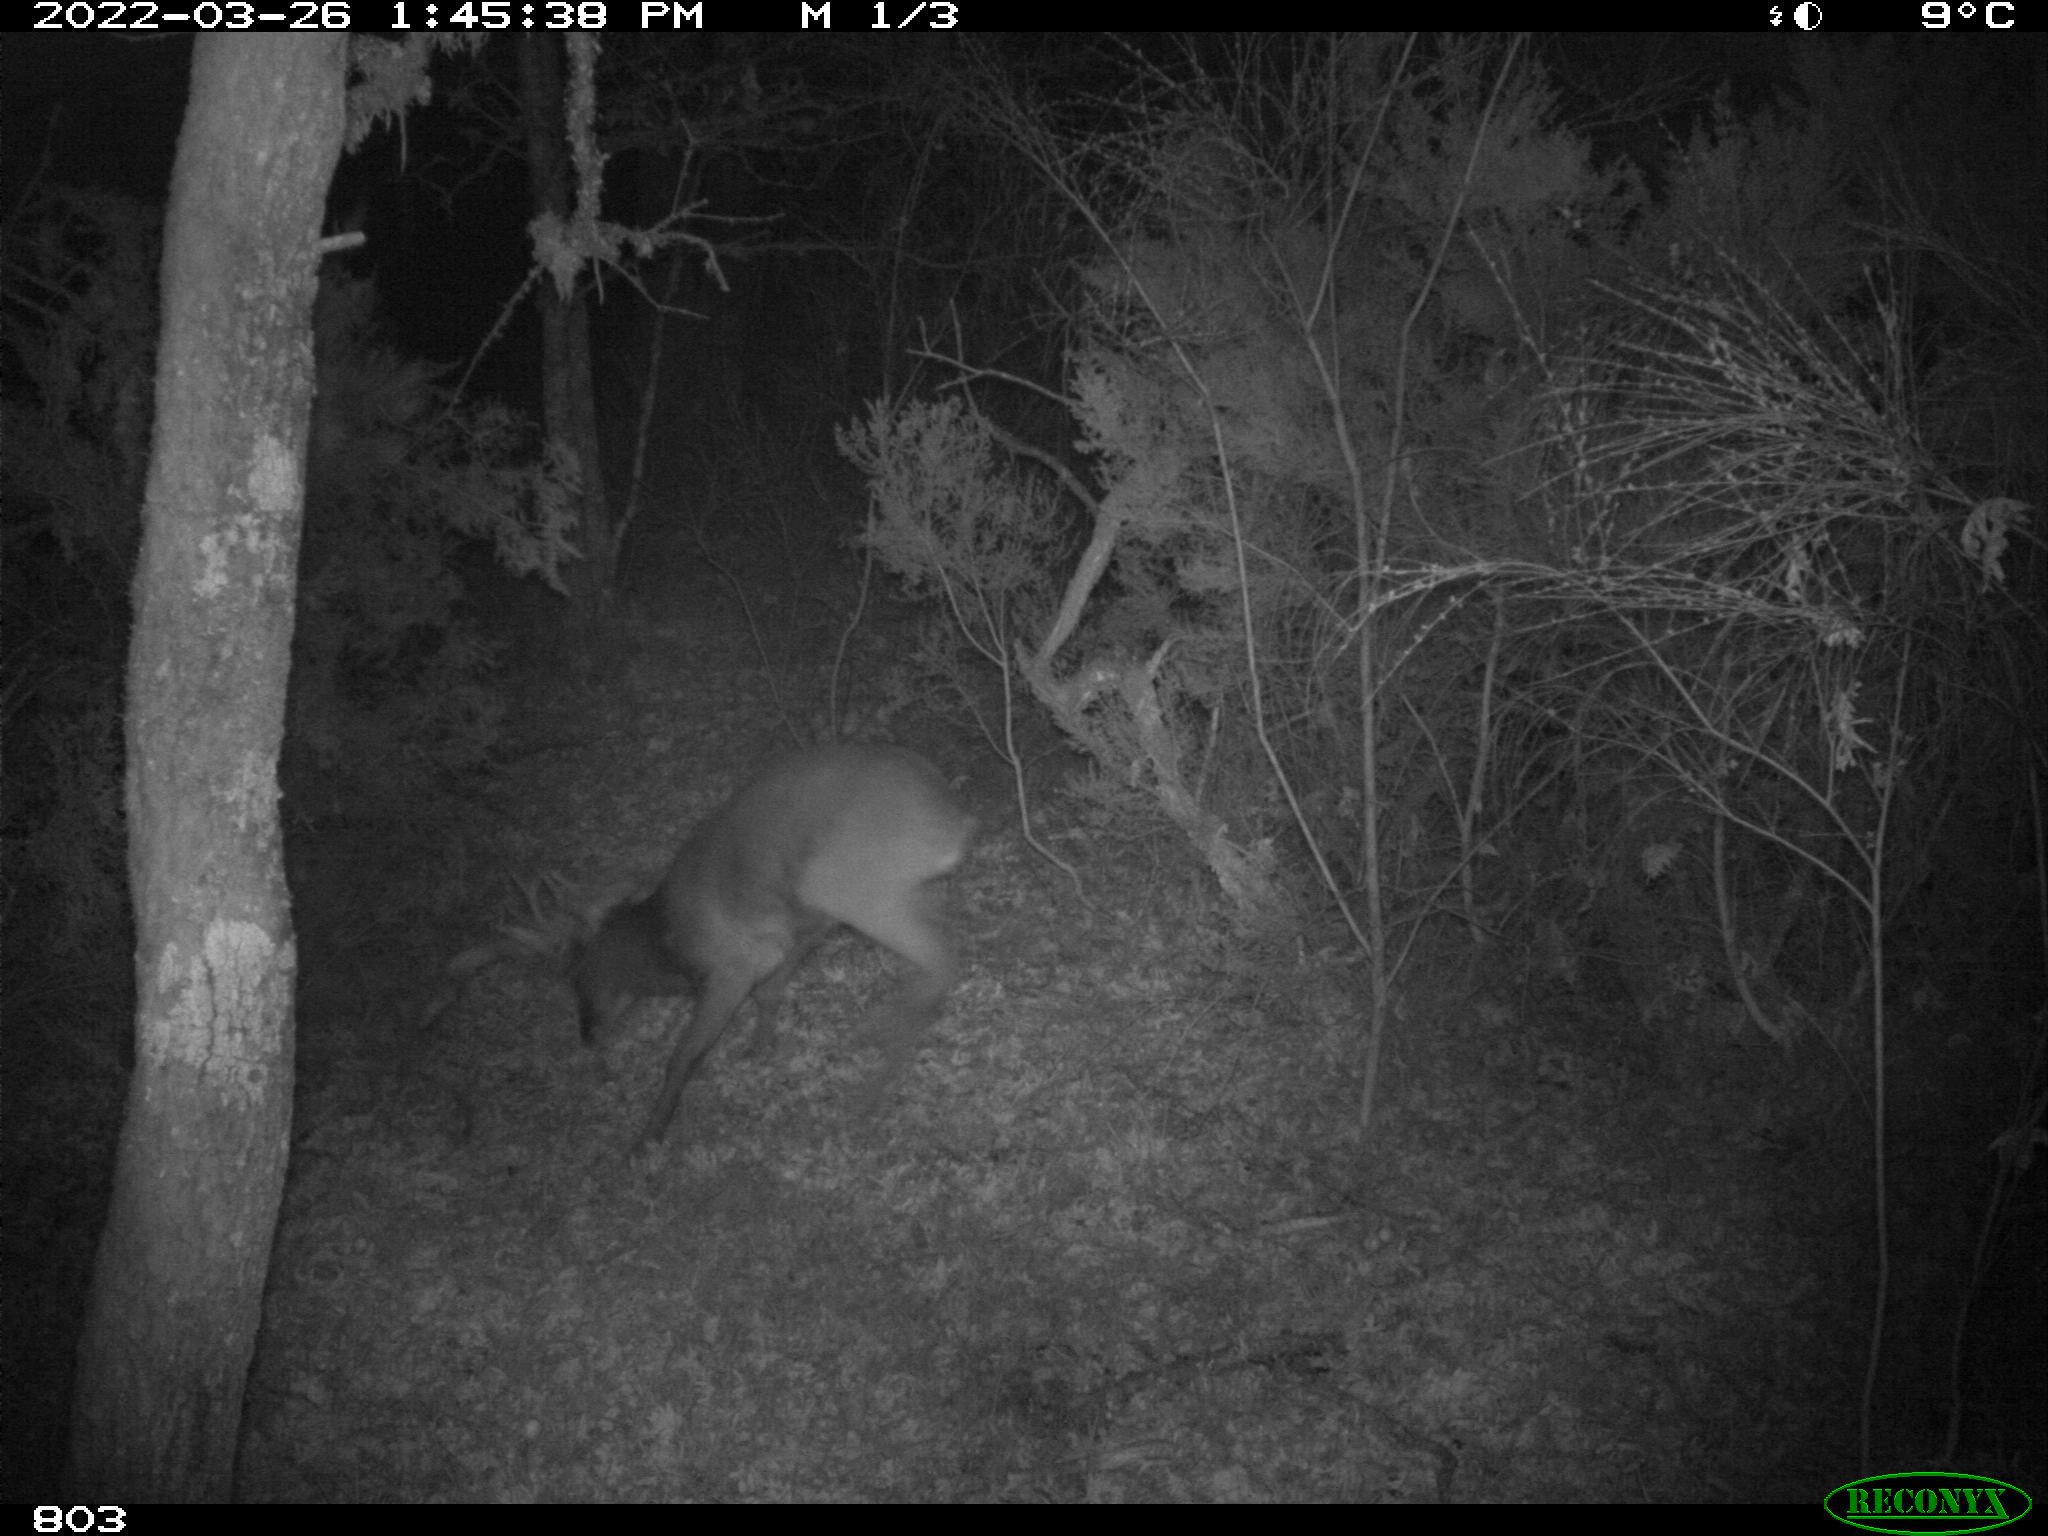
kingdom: Animalia
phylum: Chordata
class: Mammalia
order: Artiodactyla
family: Cervidae
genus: Capreolus
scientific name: Capreolus capreolus
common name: Western roe deer
